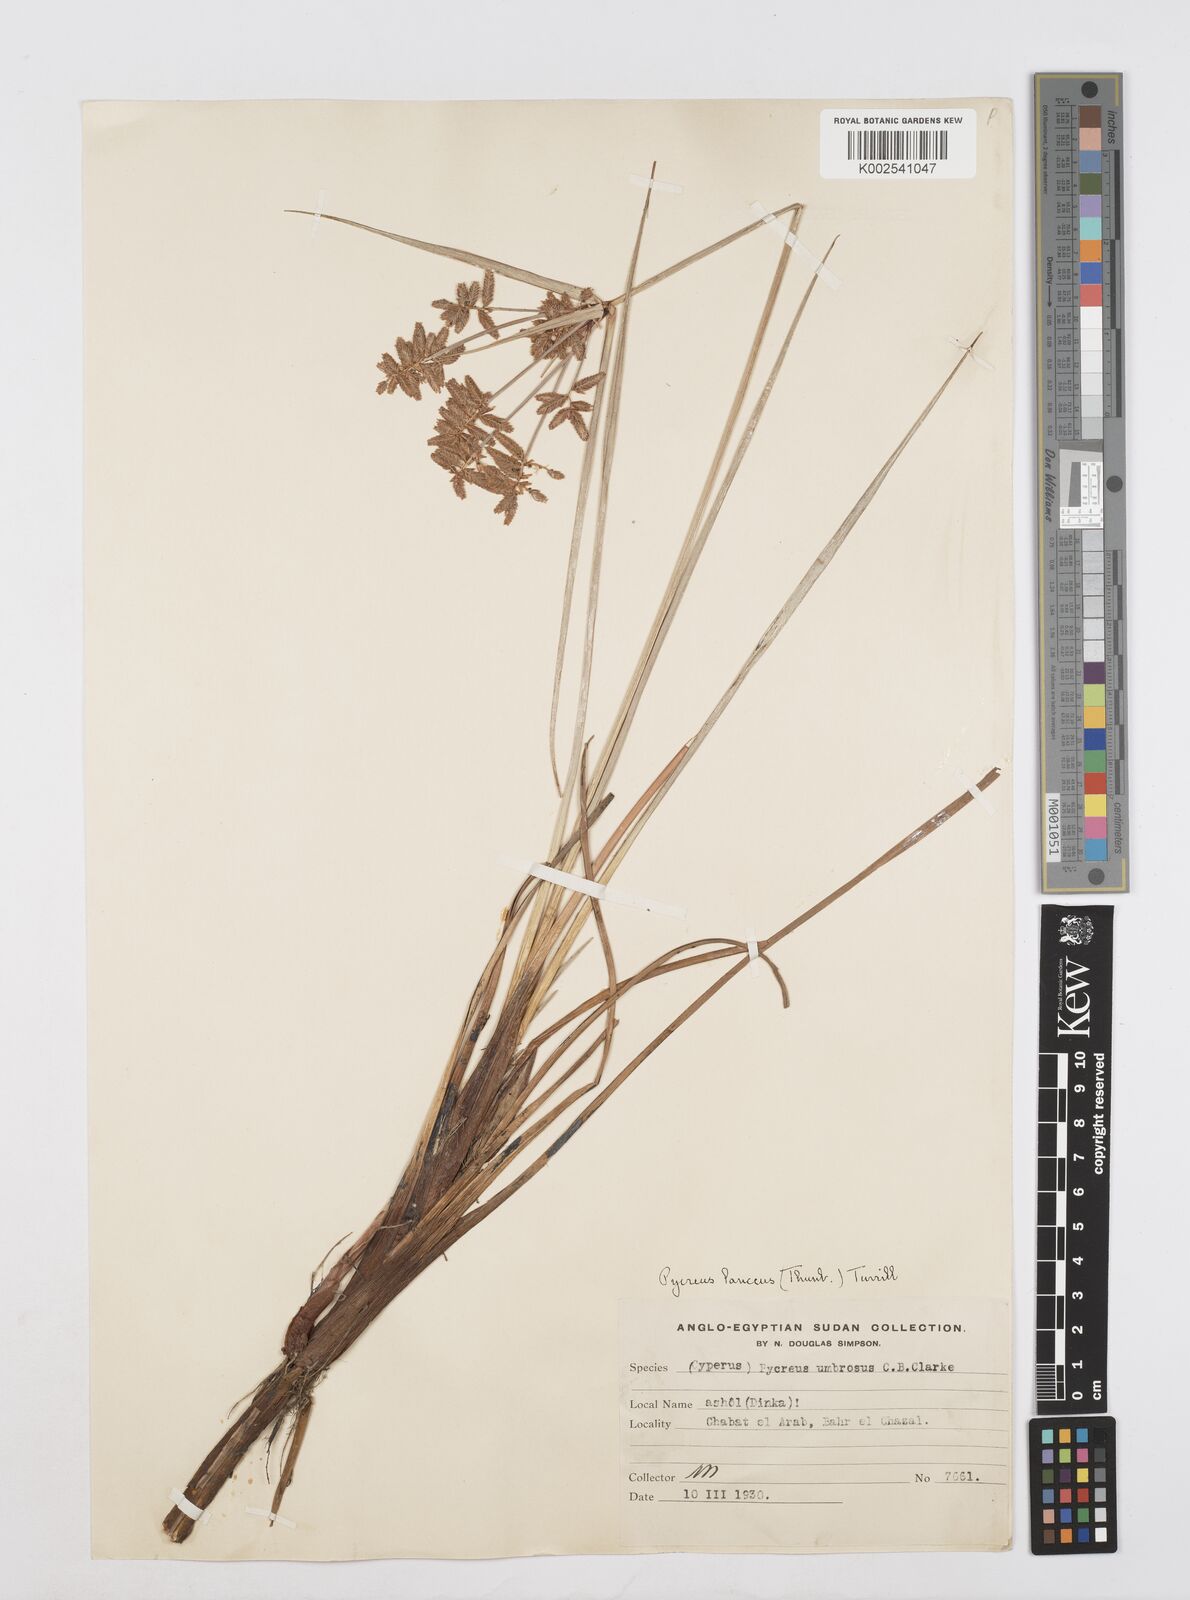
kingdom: Plantae
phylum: Tracheophyta
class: Liliopsida
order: Poales
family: Cyperaceae
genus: Cyperus
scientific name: Cyperus nitidus
